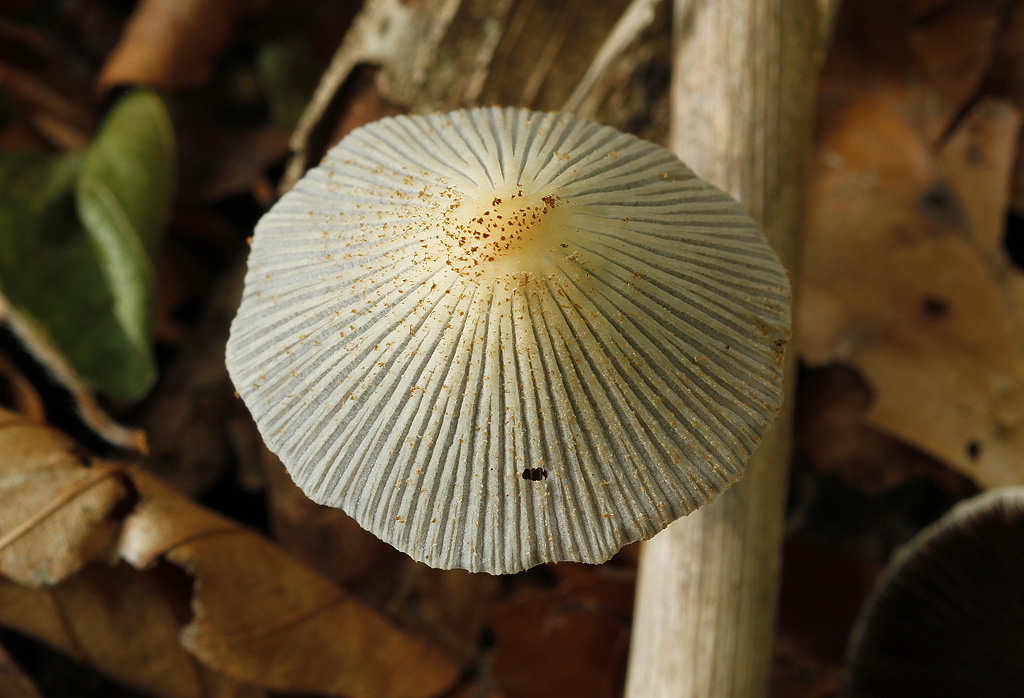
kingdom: Fungi
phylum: Basidiomycota
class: Agaricomycetes
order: Agaricales
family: Psathyrellaceae
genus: Coprinellus
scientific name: Coprinellus xanthothrix
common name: gultrådet blækhat
